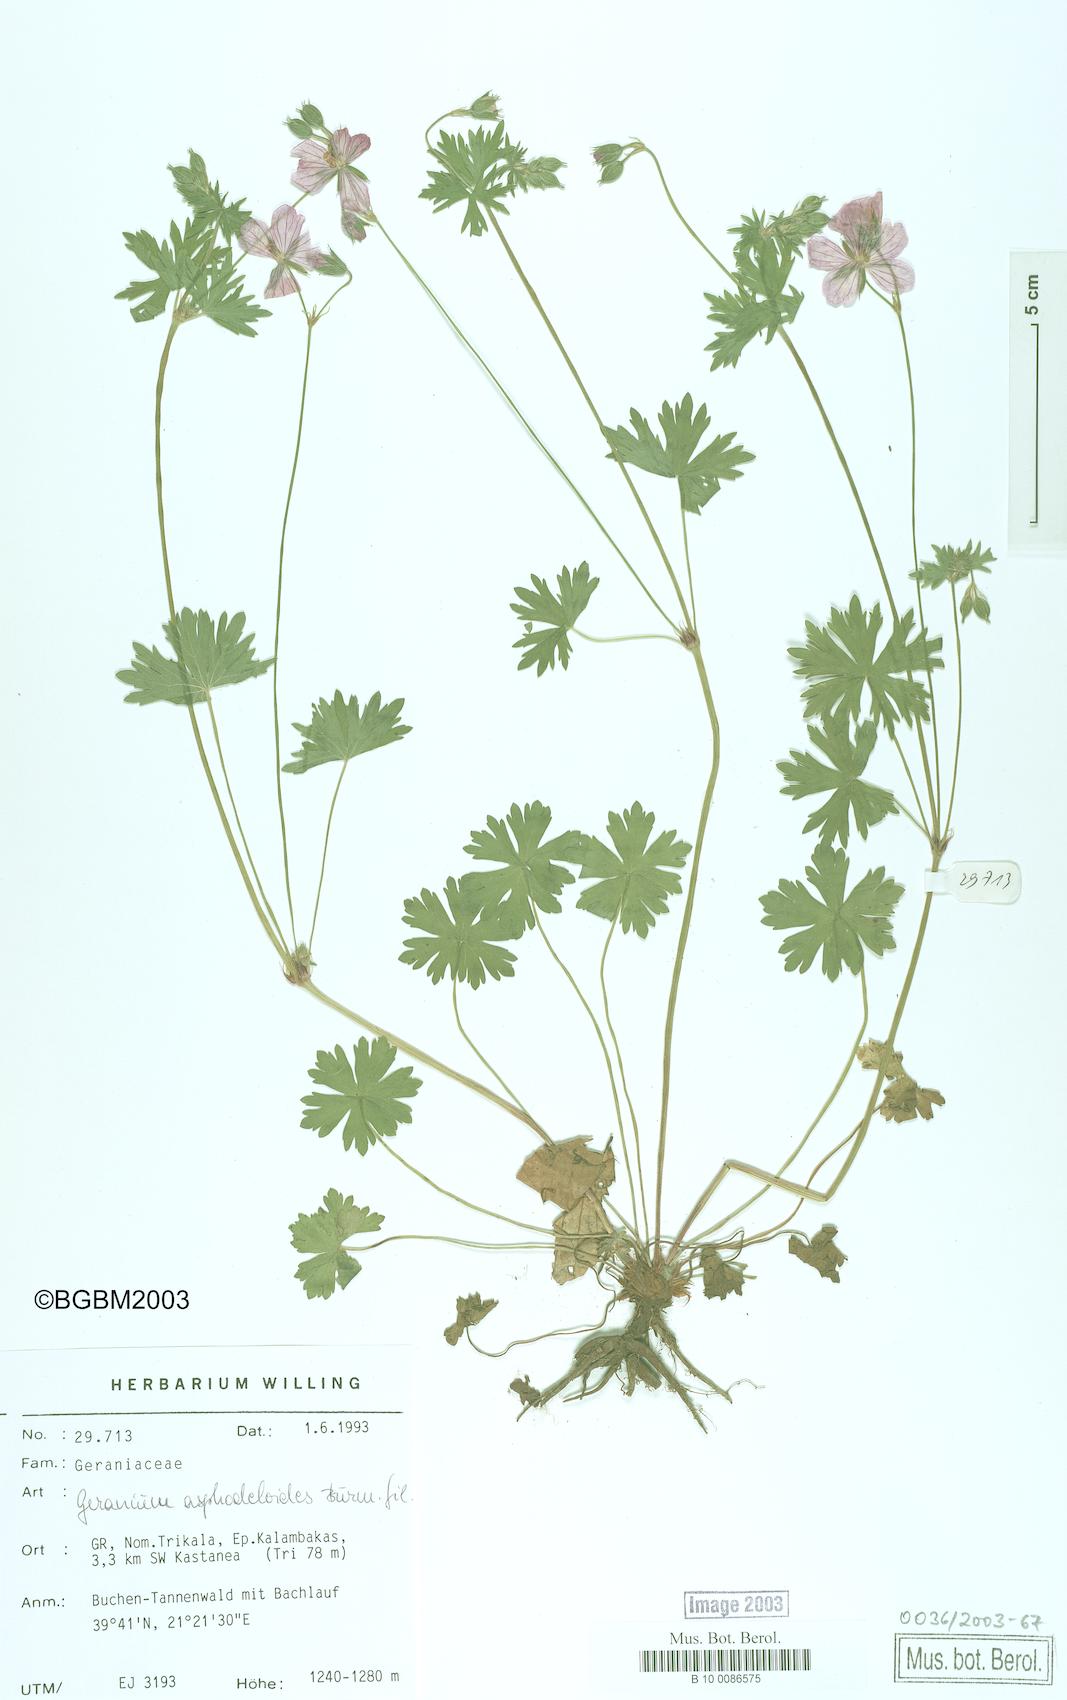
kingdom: Plantae
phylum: Tracheophyta
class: Magnoliopsida
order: Geraniales
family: Geraniaceae
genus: Geranium
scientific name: Geranium asphodeloides
